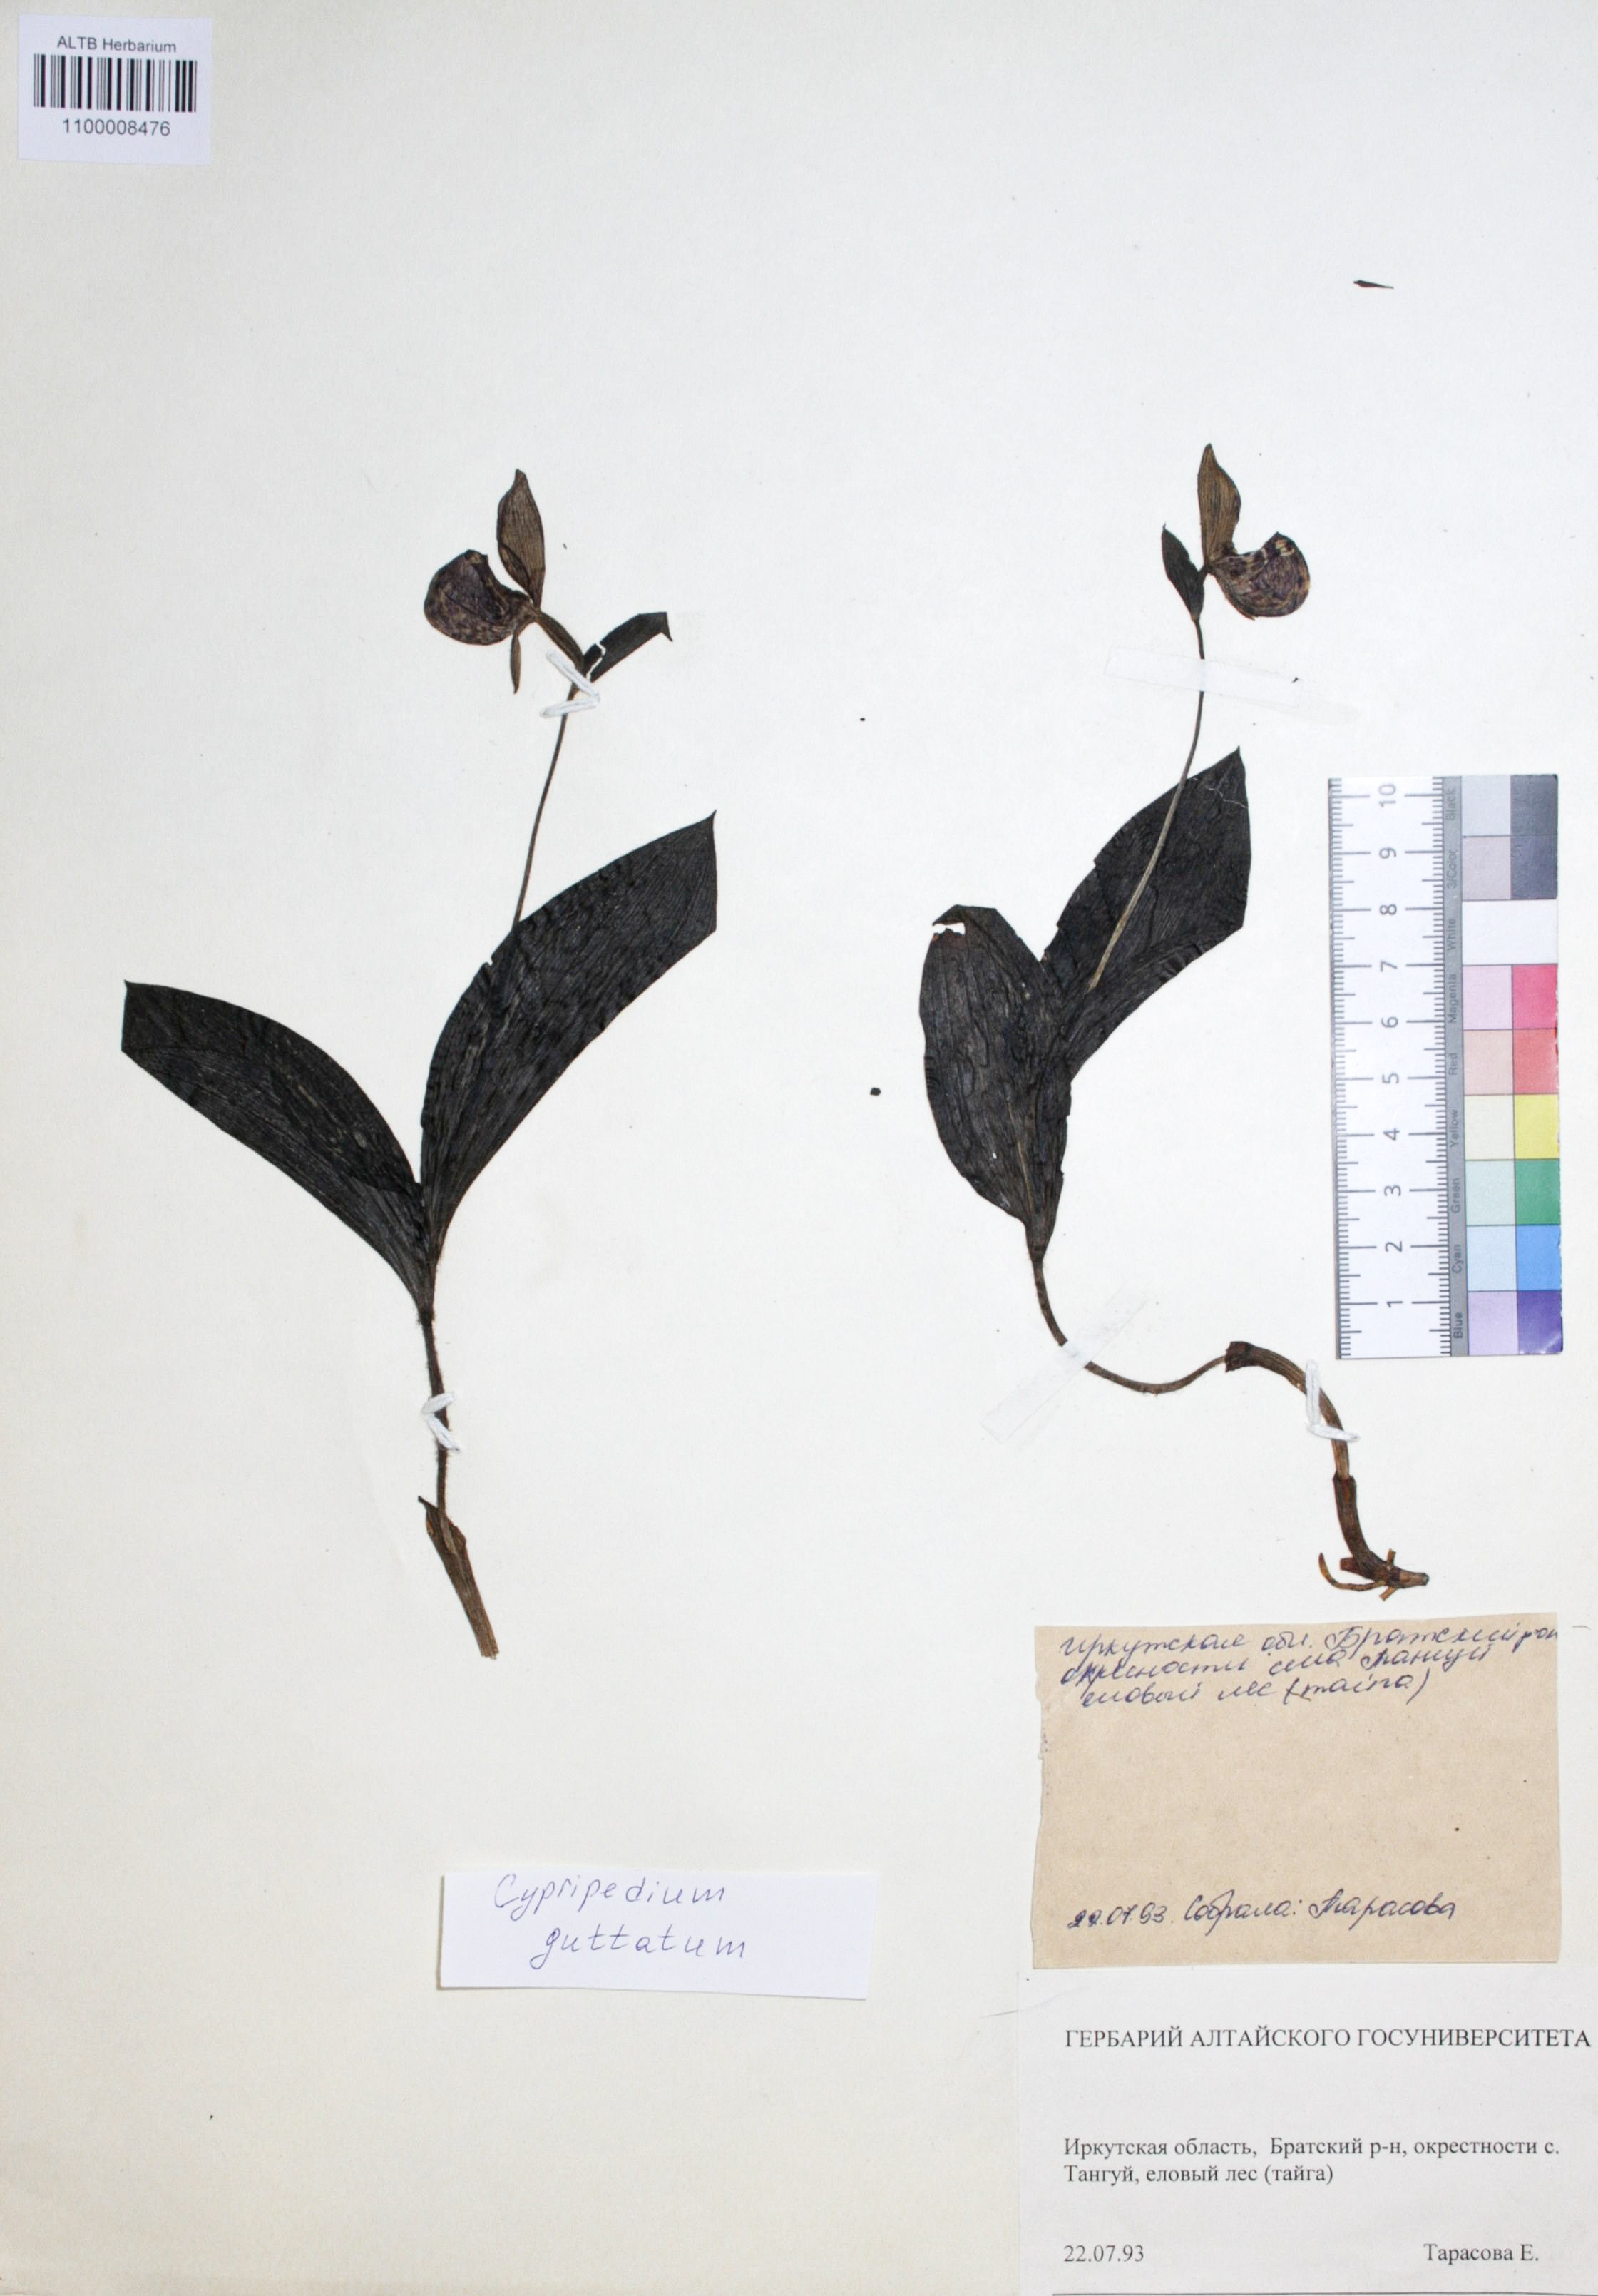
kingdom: Plantae
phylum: Tracheophyta
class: Liliopsida
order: Asparagales
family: Orchidaceae
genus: Cypripedium
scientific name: Cypripedium guttatum
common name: Pink lady slipper
